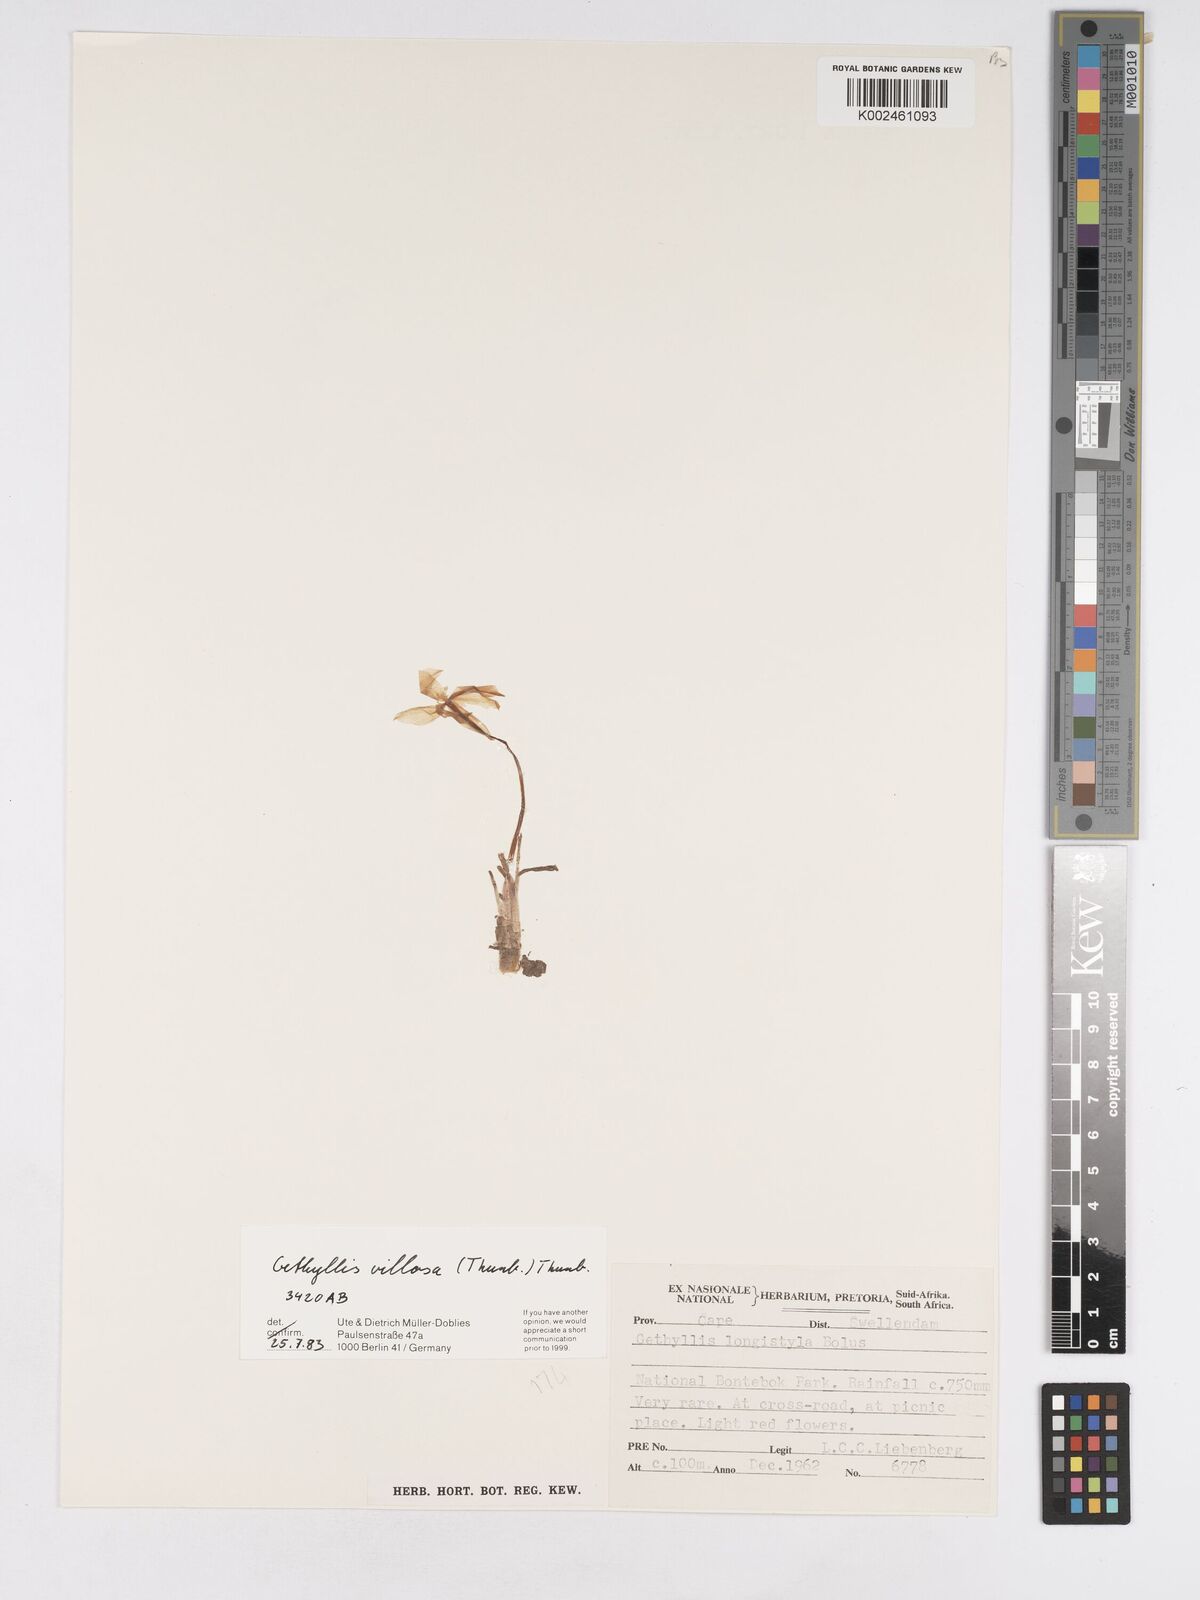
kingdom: Plantae
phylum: Tracheophyta
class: Liliopsida
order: Asparagales
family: Amaryllidaceae
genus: Gethyllis
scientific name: Gethyllis villosa
